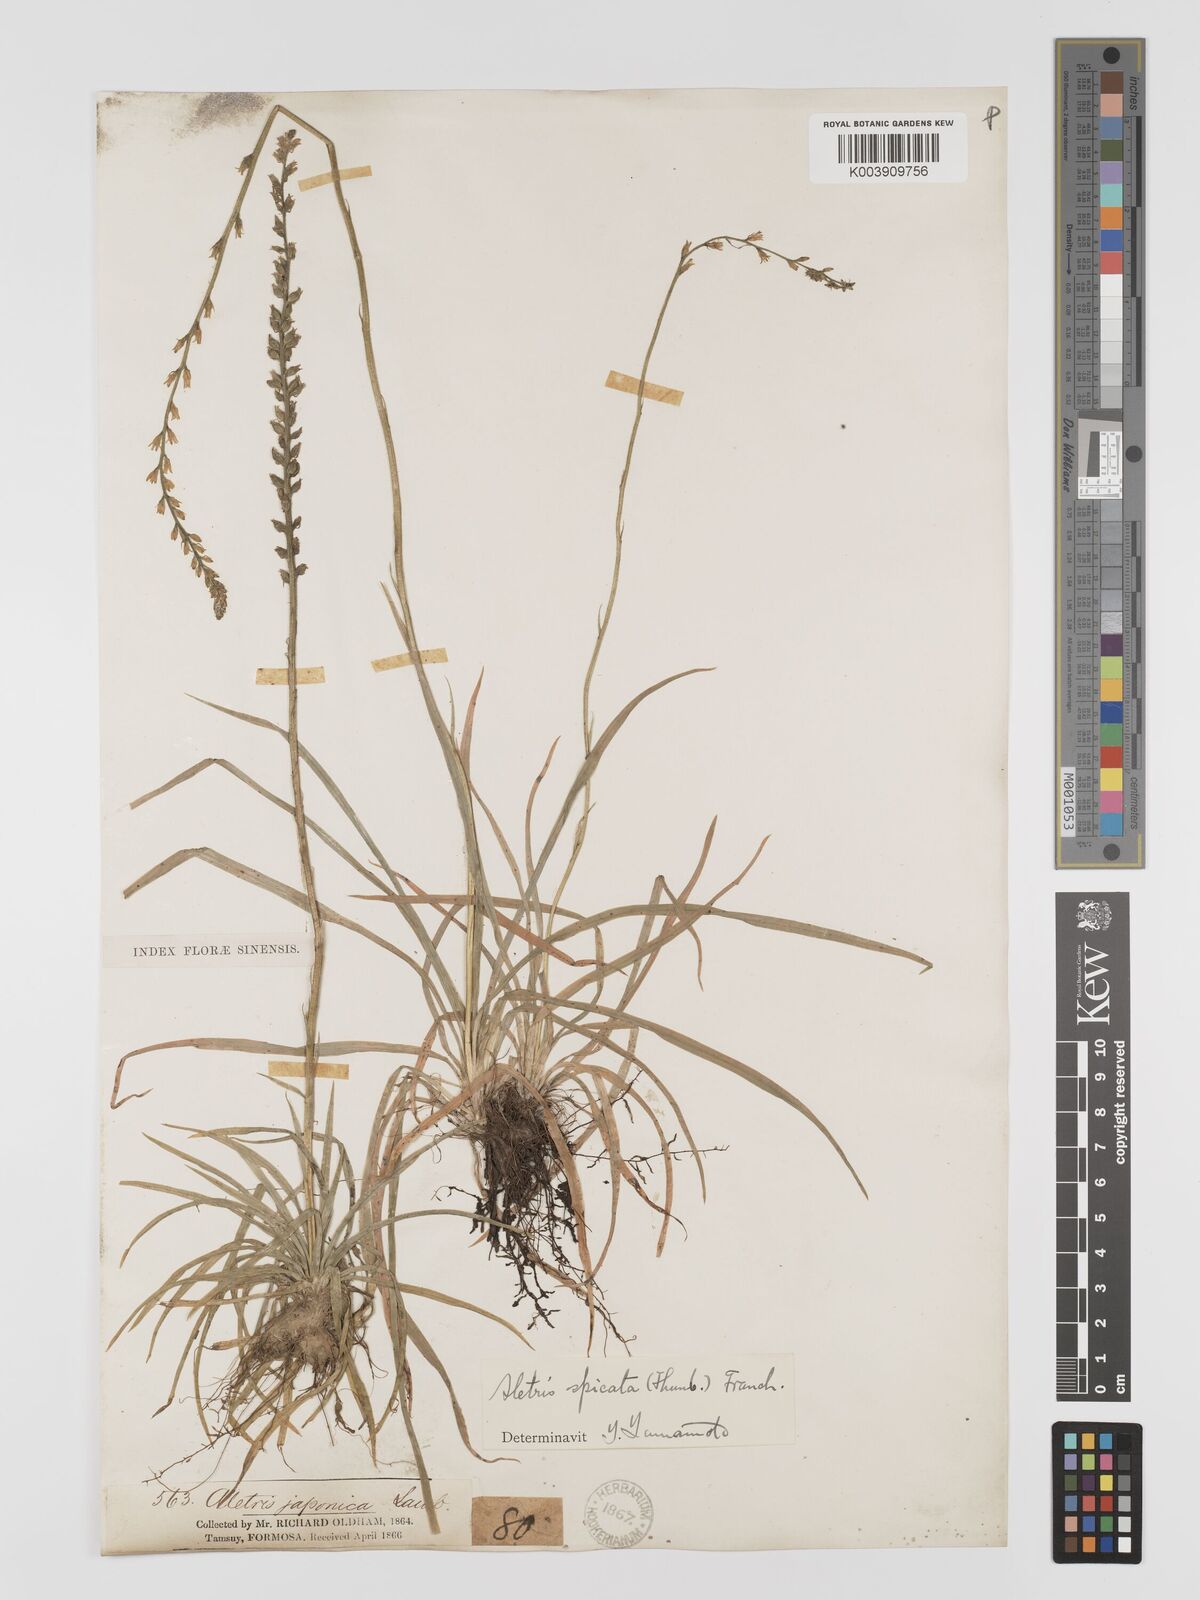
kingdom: Plantae
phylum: Tracheophyta
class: Liliopsida
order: Dioscoreales
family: Nartheciaceae
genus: Aletris
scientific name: Aletris spicata
